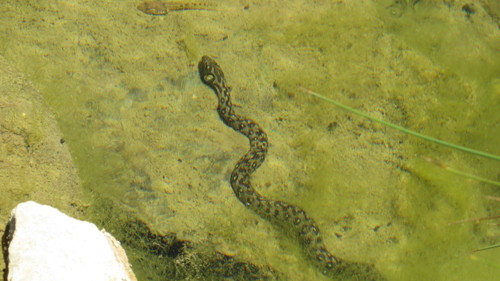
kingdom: Animalia
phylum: Chordata
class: Squamata
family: Colubridae
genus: Natrix
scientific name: Natrix maura
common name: Viperine water snake
